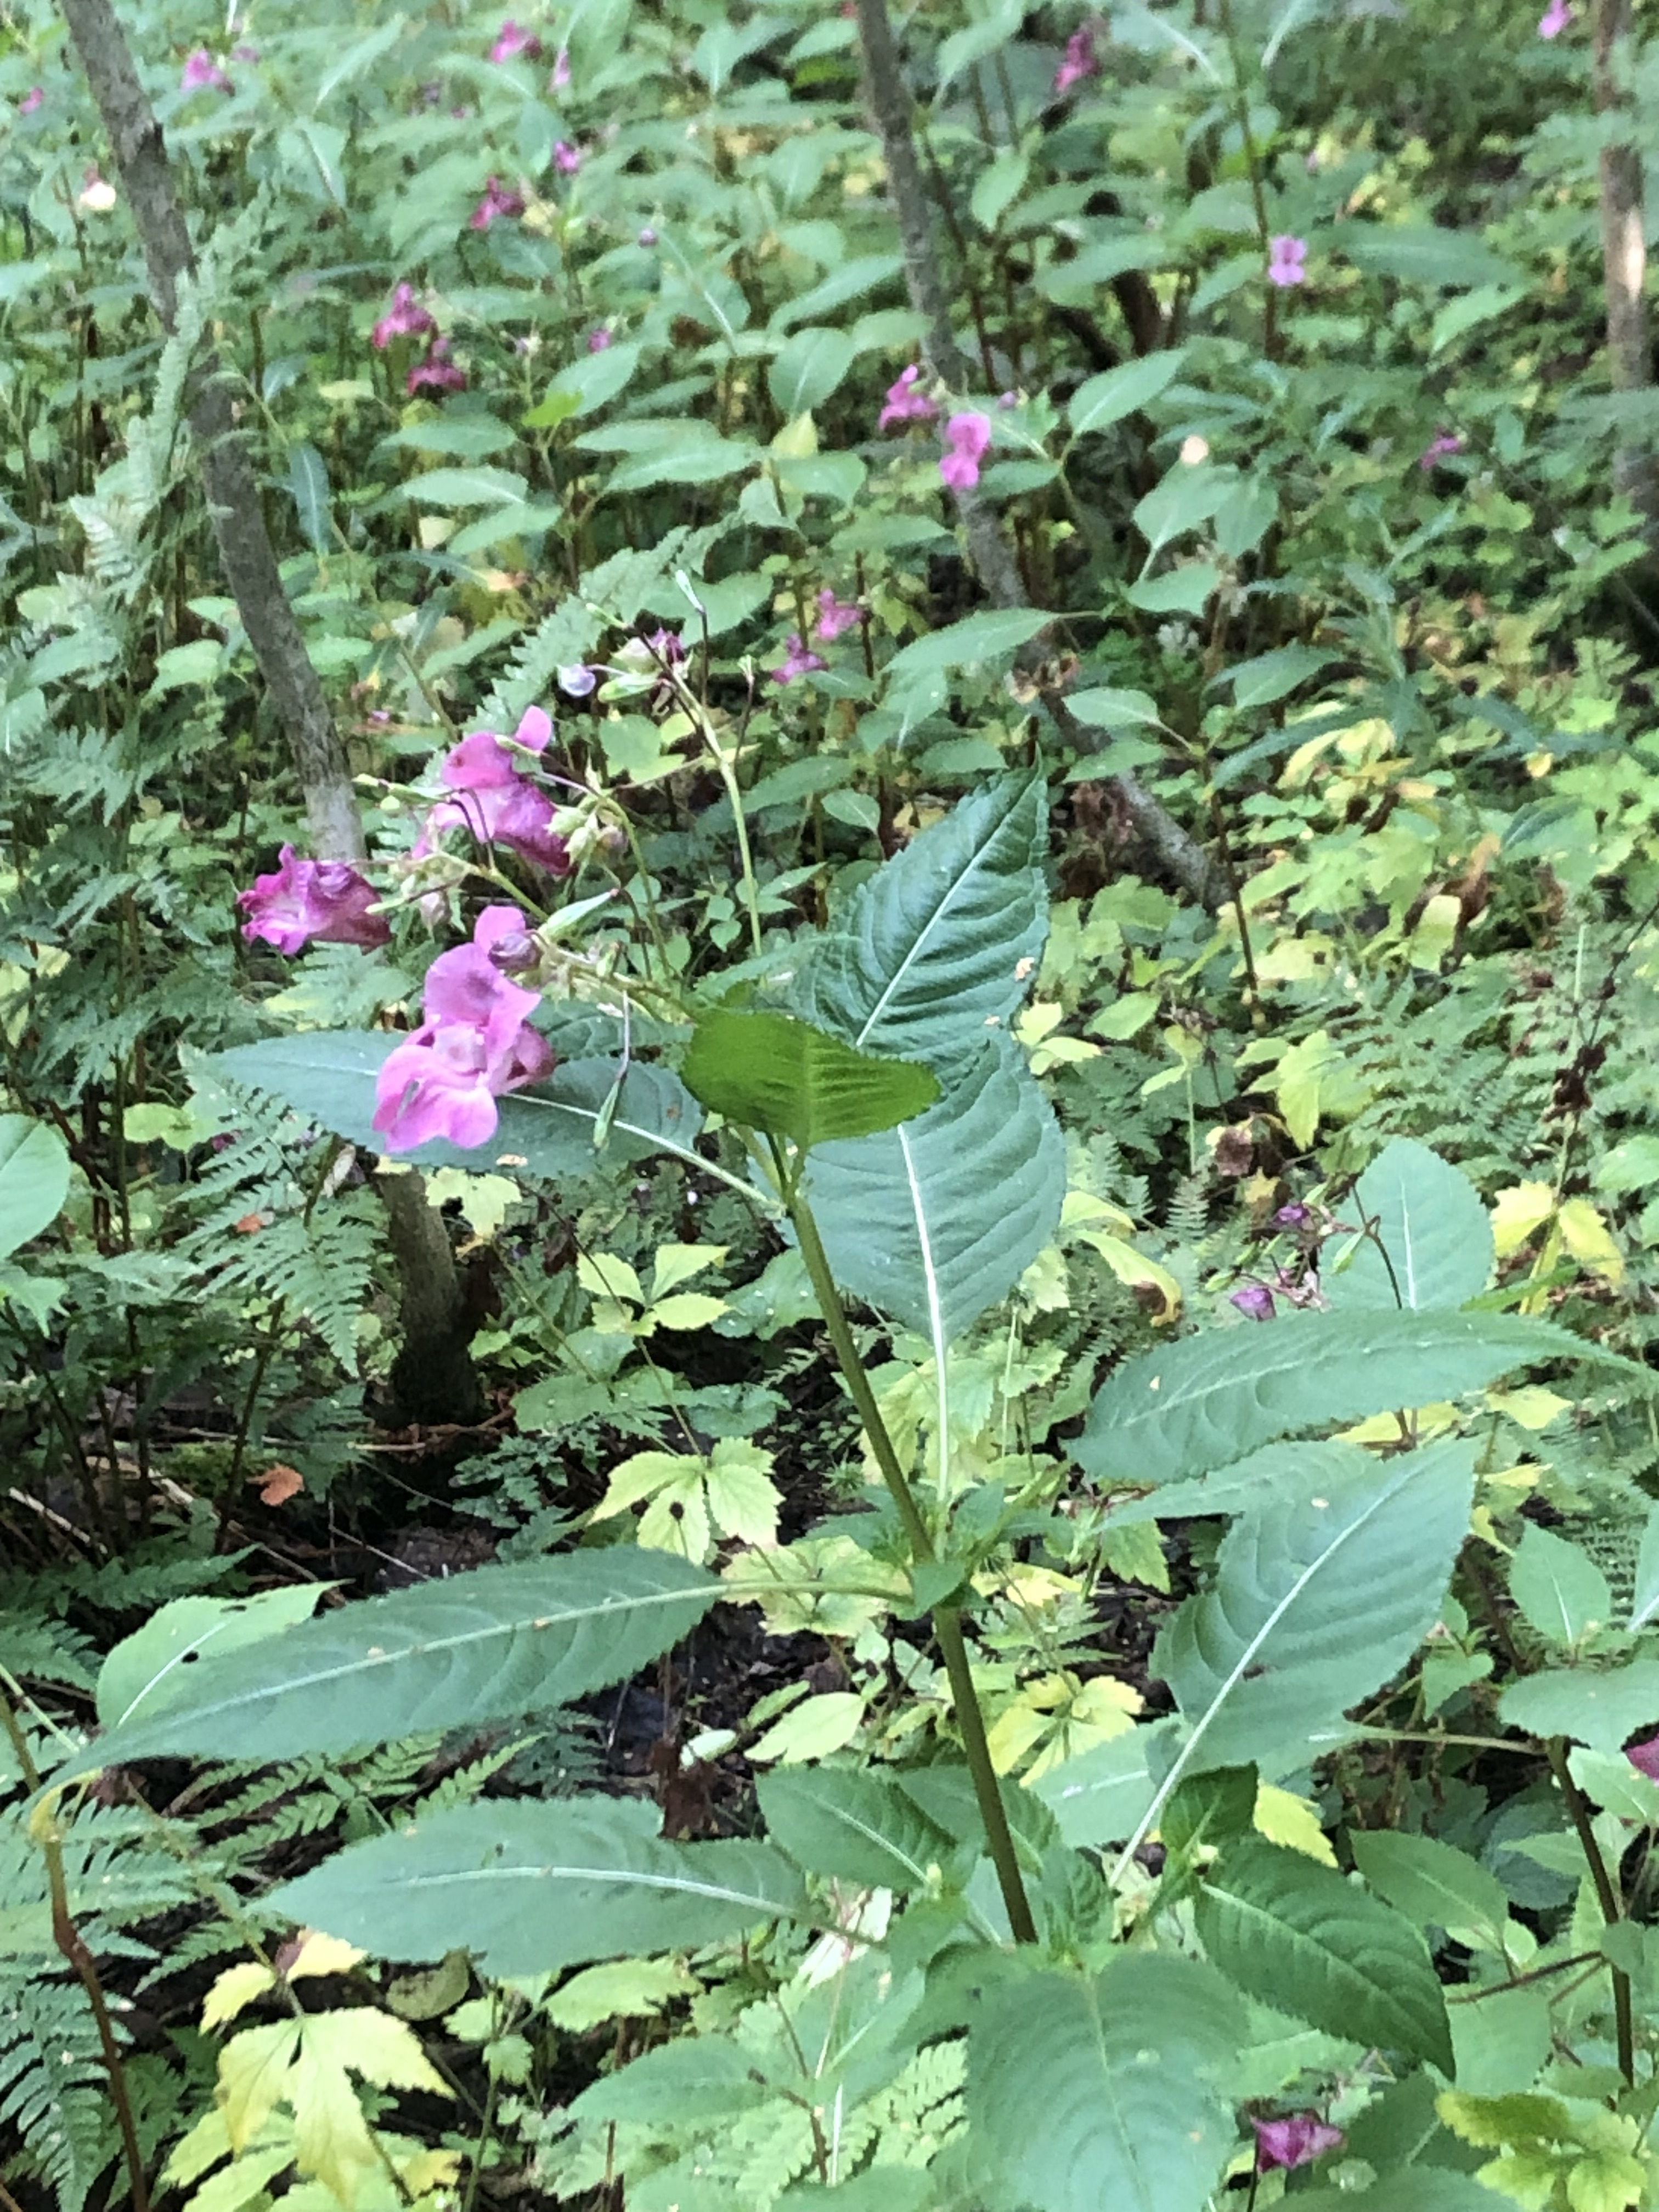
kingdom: Plantae
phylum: Tracheophyta
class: Magnoliopsida
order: Ericales
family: Balsaminaceae
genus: Impatiens
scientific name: Impatiens glandulifera
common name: Himalayan balsam
